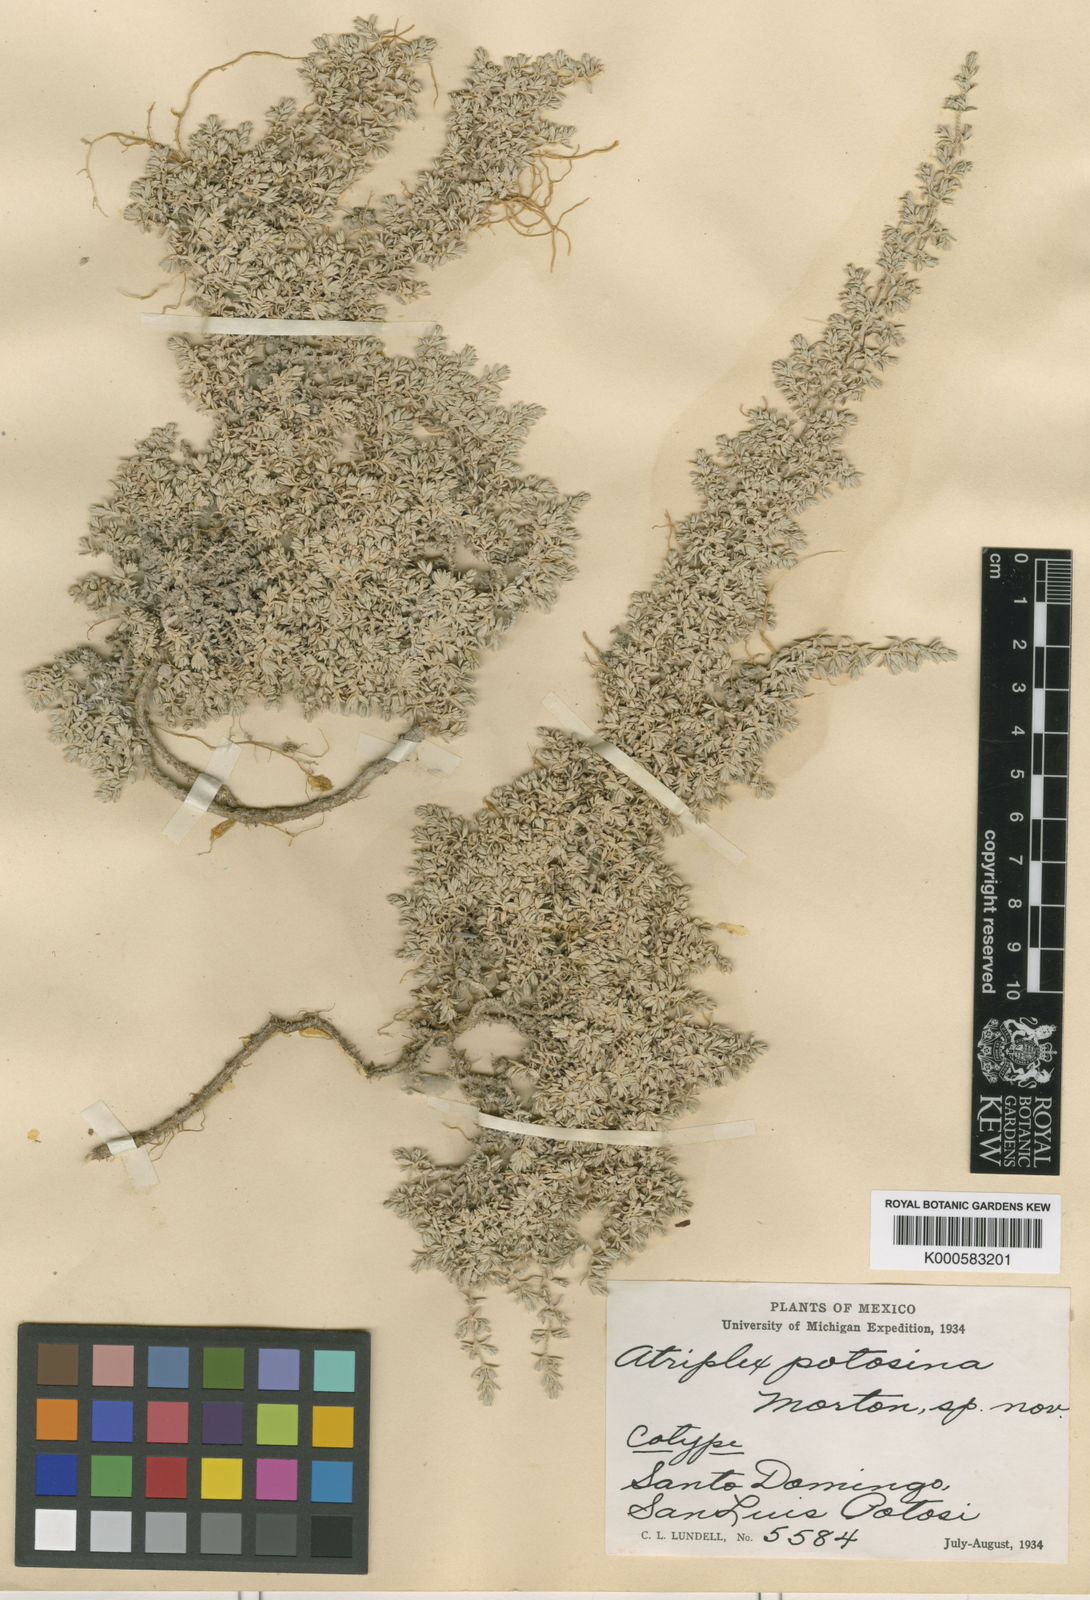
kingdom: Plantae
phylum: Tracheophyta
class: Magnoliopsida
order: Caryophyllales
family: Amaranthaceae
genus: Atriplex
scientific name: Atriplex
